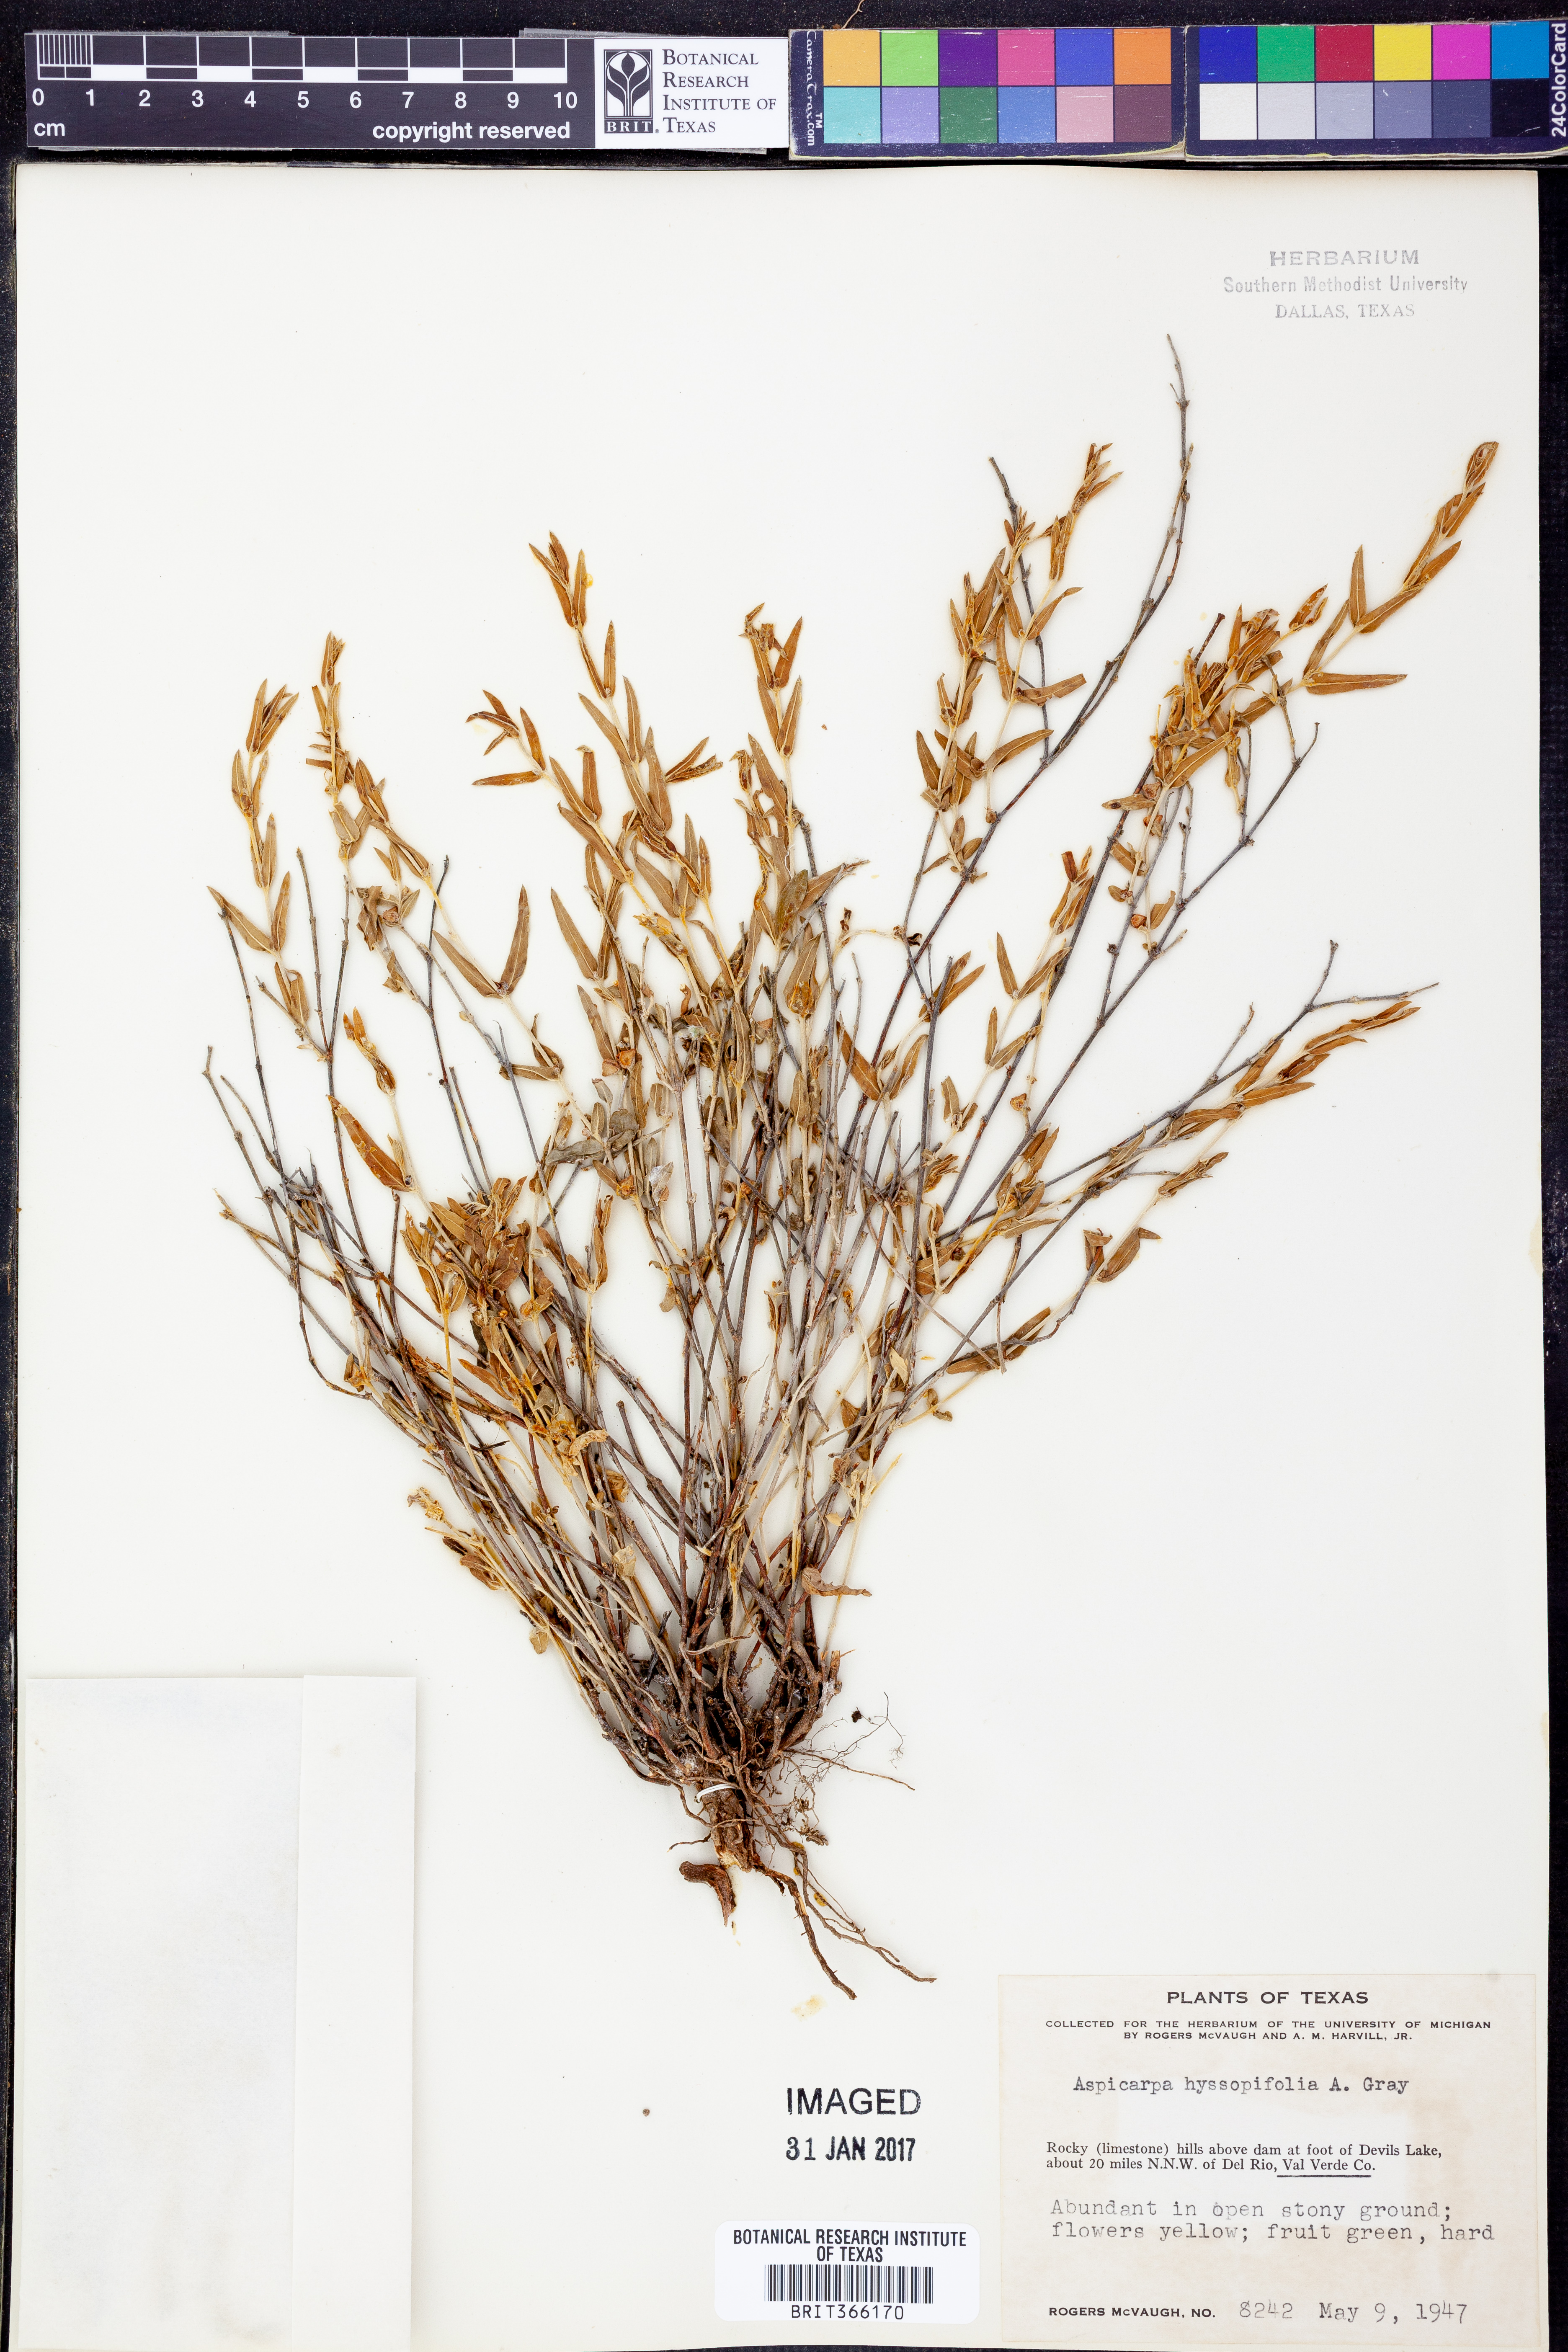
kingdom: Plantae
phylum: Tracheophyta
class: Magnoliopsida
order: Malpighiales
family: Malpighiaceae
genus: Aspicarpa
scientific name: Aspicarpa hyssopifolia
